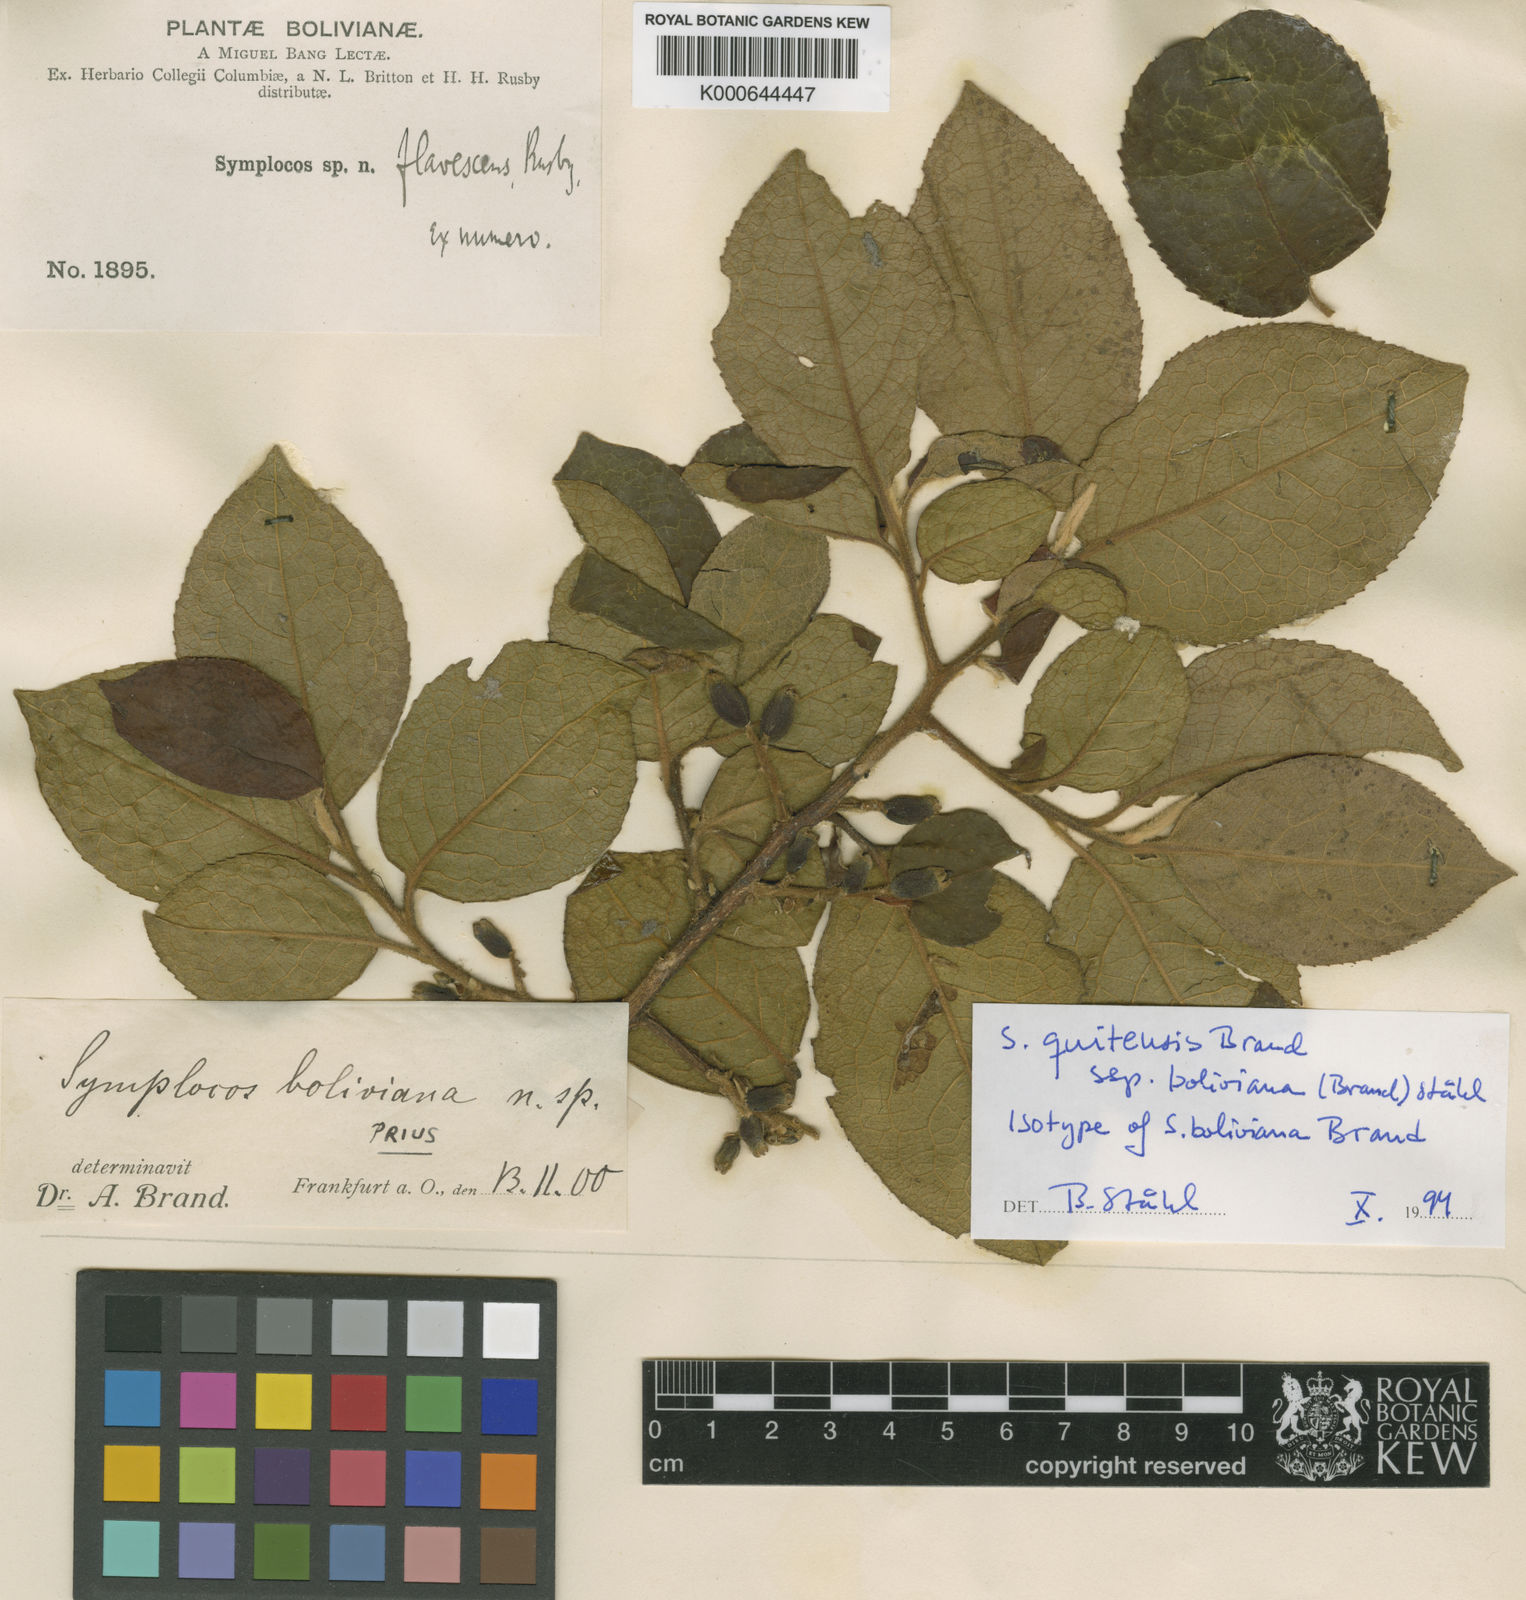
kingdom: Plantae
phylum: Tracheophyta
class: Magnoliopsida
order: Ericales
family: Symplocaceae
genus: Symplocos
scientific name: Symplocos quitensis
